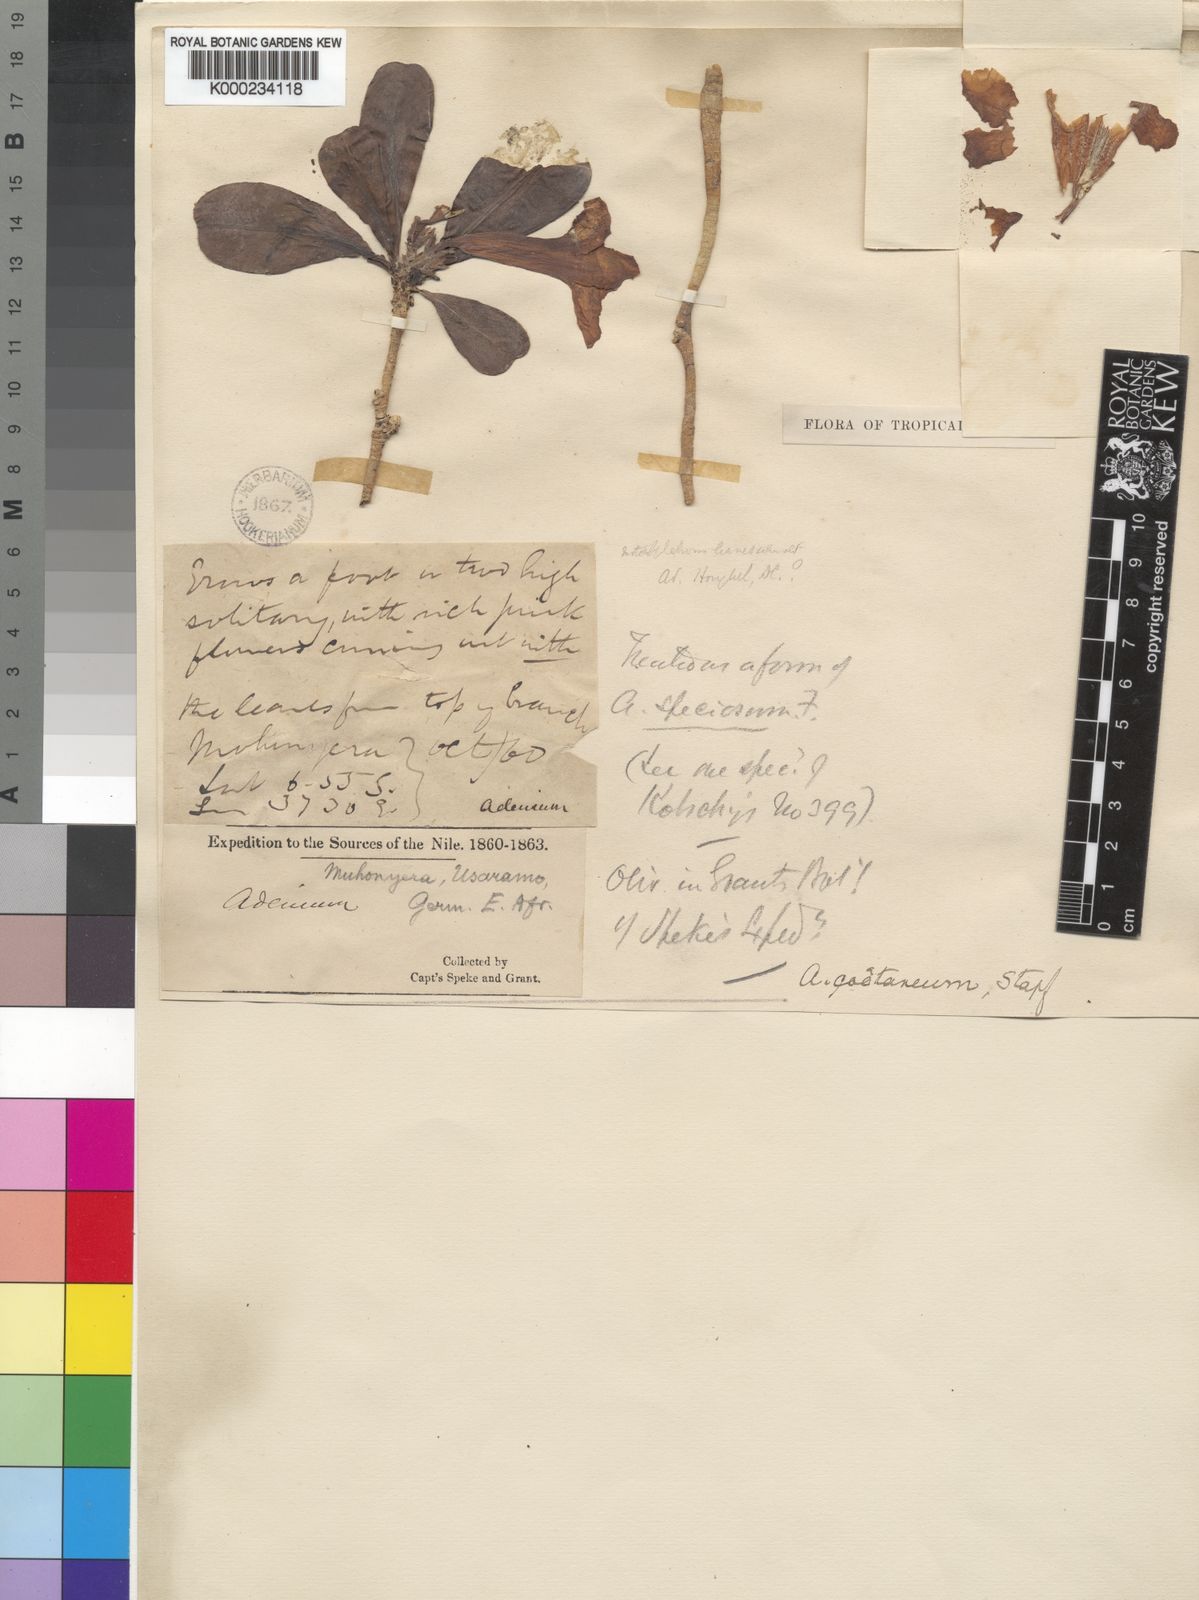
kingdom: Plantae
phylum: Tracheophyta
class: Magnoliopsida
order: Gentianales
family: Apocynaceae
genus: Adenium
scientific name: Adenium obesum
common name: Desert-rose
